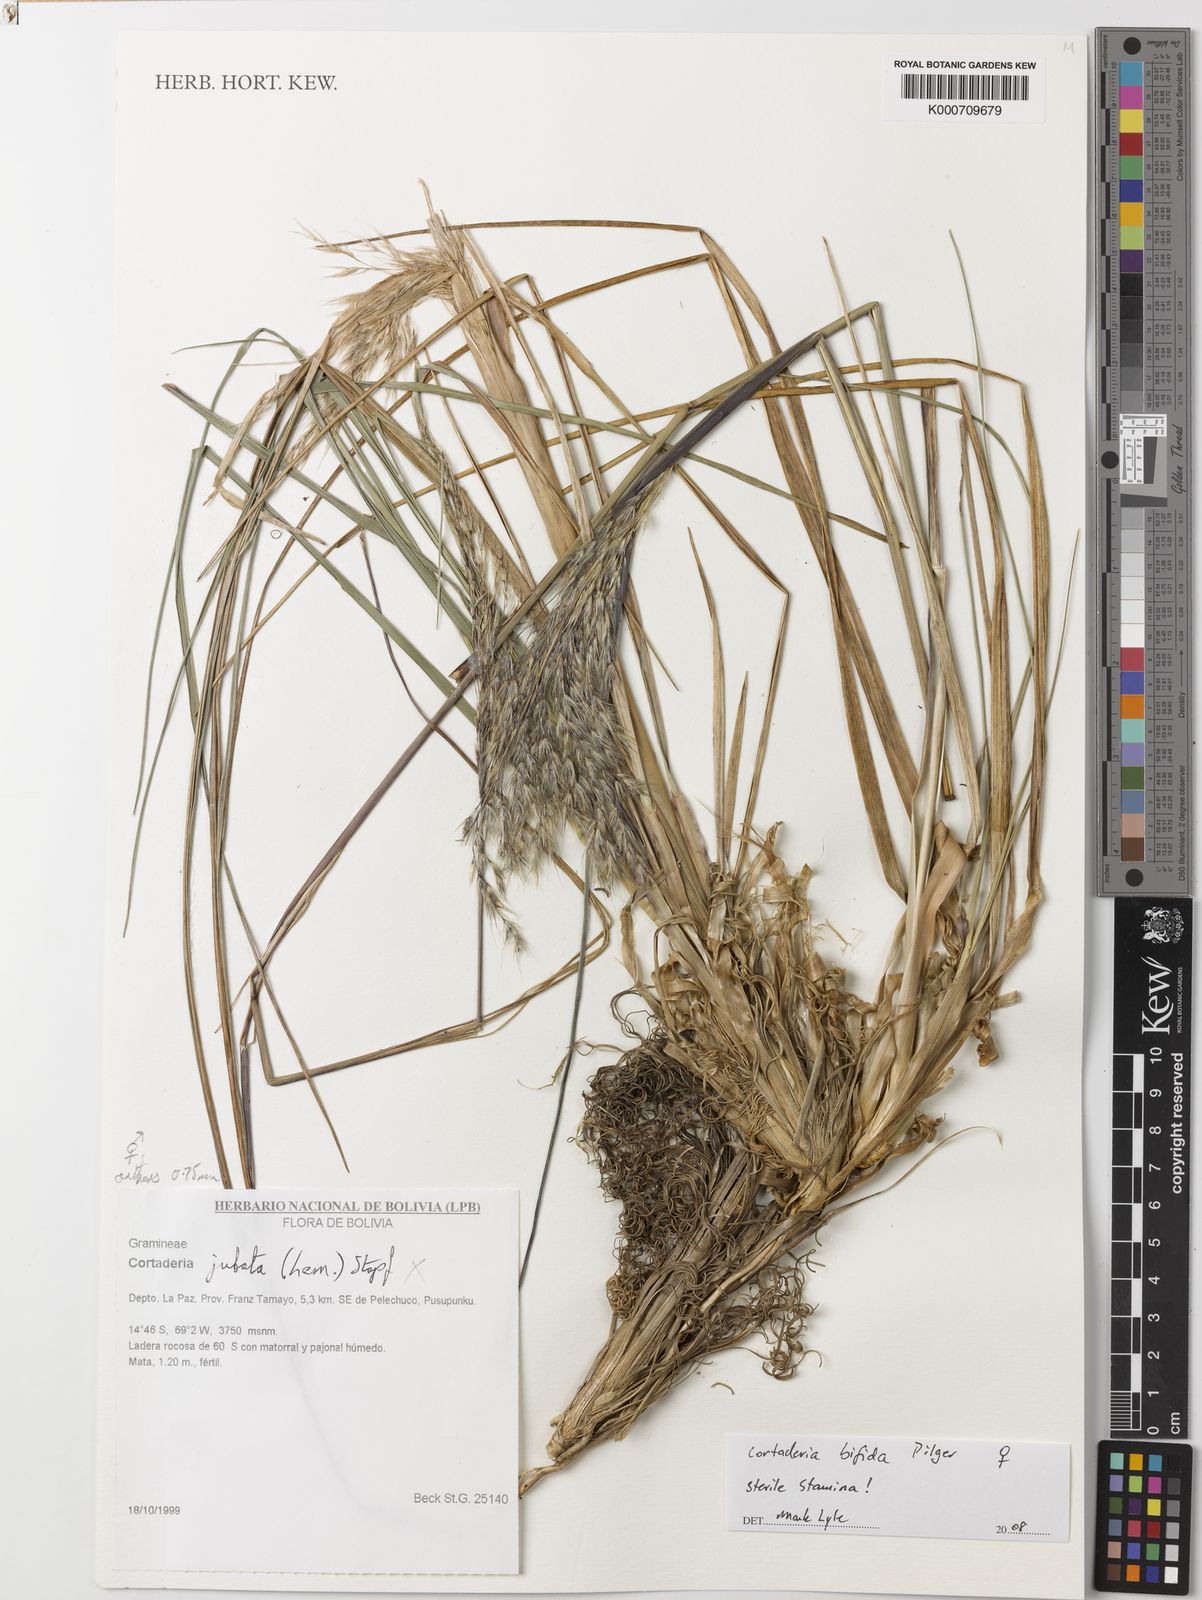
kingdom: Plantae
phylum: Tracheophyta
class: Liliopsida
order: Poales
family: Poaceae
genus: Cortaderia
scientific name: Cortaderia bifida
